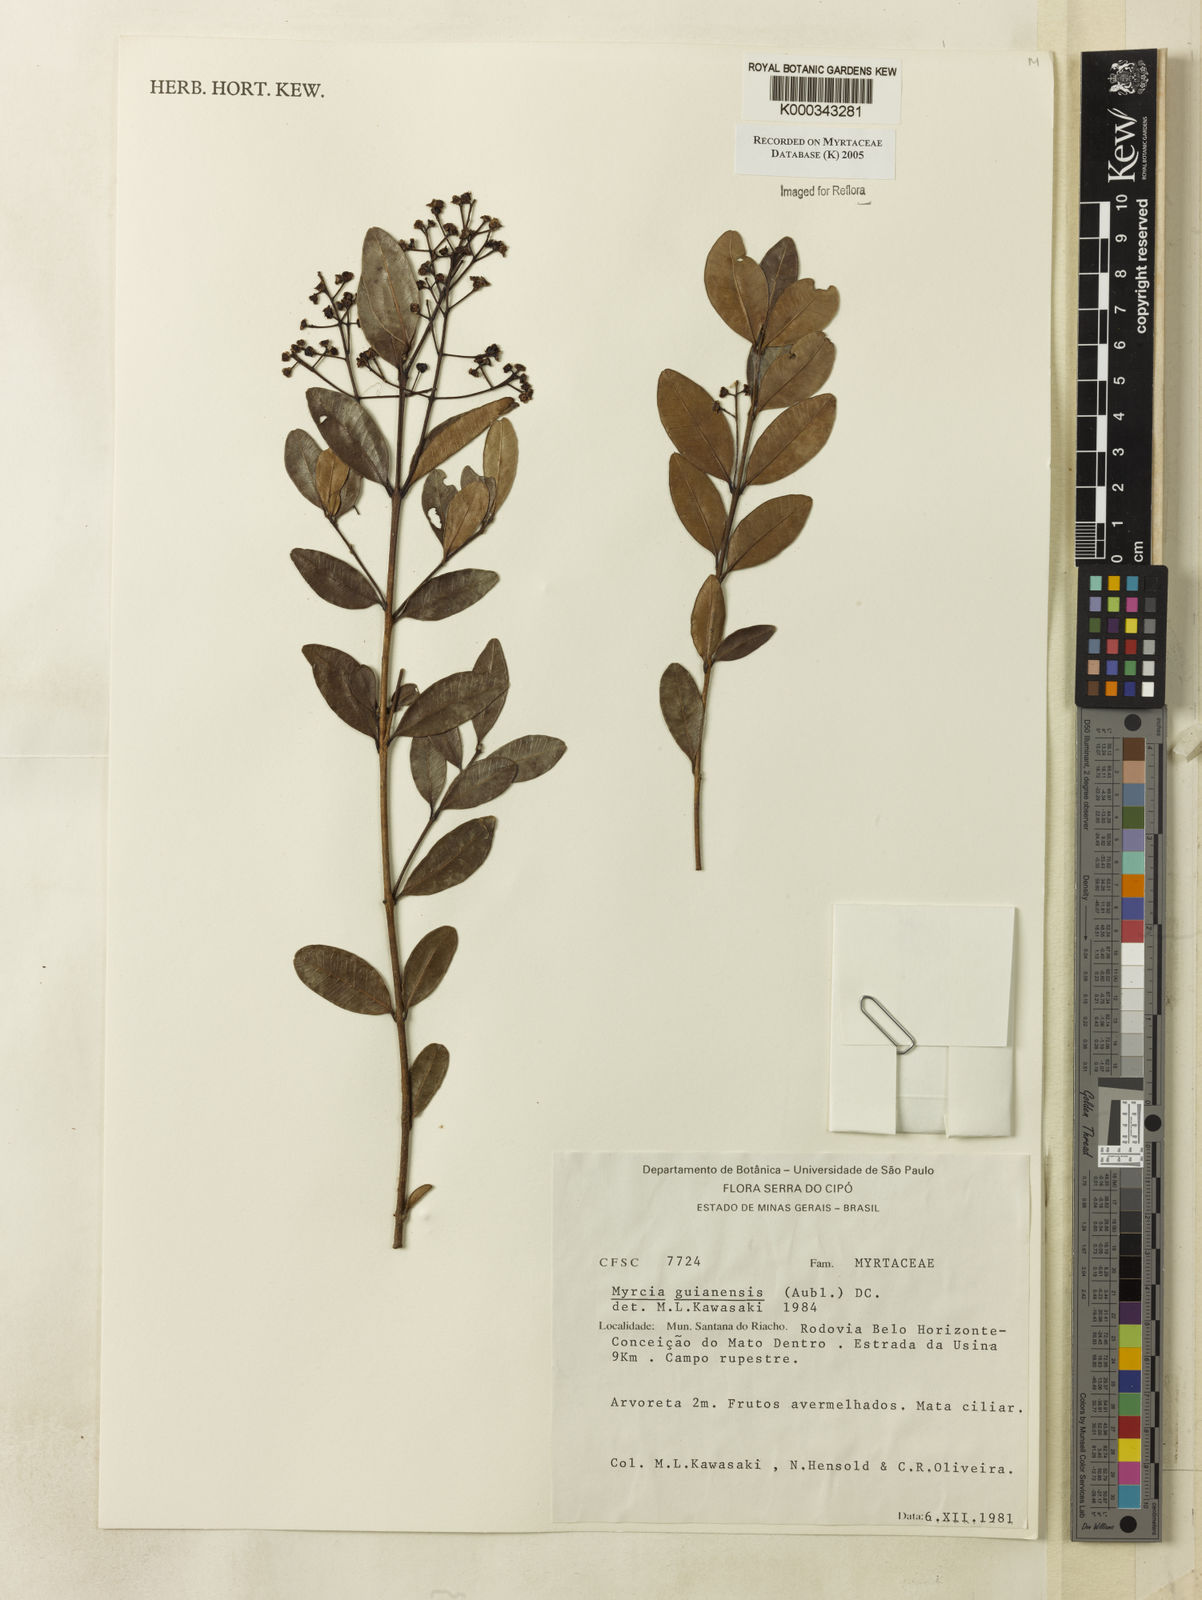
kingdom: Plantae
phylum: Tracheophyta
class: Magnoliopsida
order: Myrtales
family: Myrtaceae
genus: Myrcia
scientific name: Myrcia guianensis
